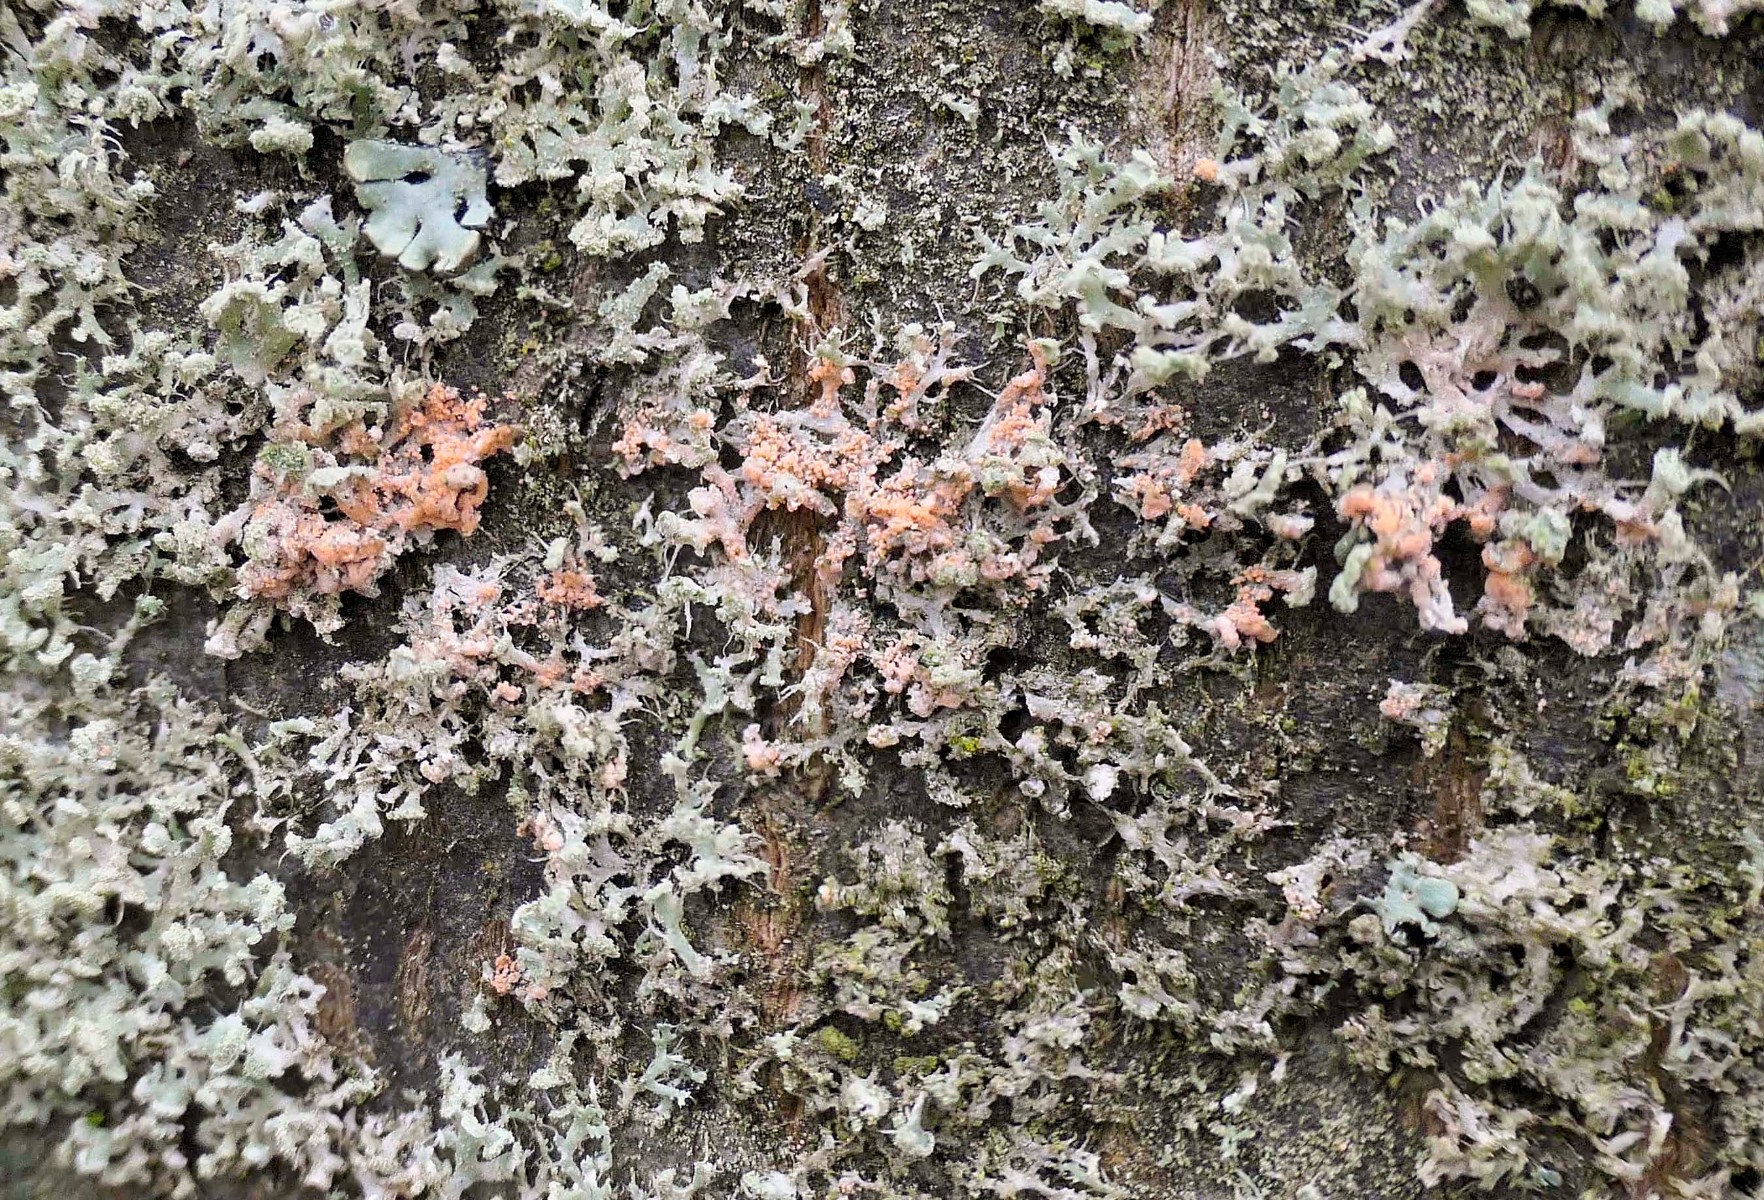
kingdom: Fungi
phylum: Basidiomycota
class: Agaricomycetes
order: Corticiales
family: Corticiaceae
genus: Erythricium
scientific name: Erythricium aurantiacum
